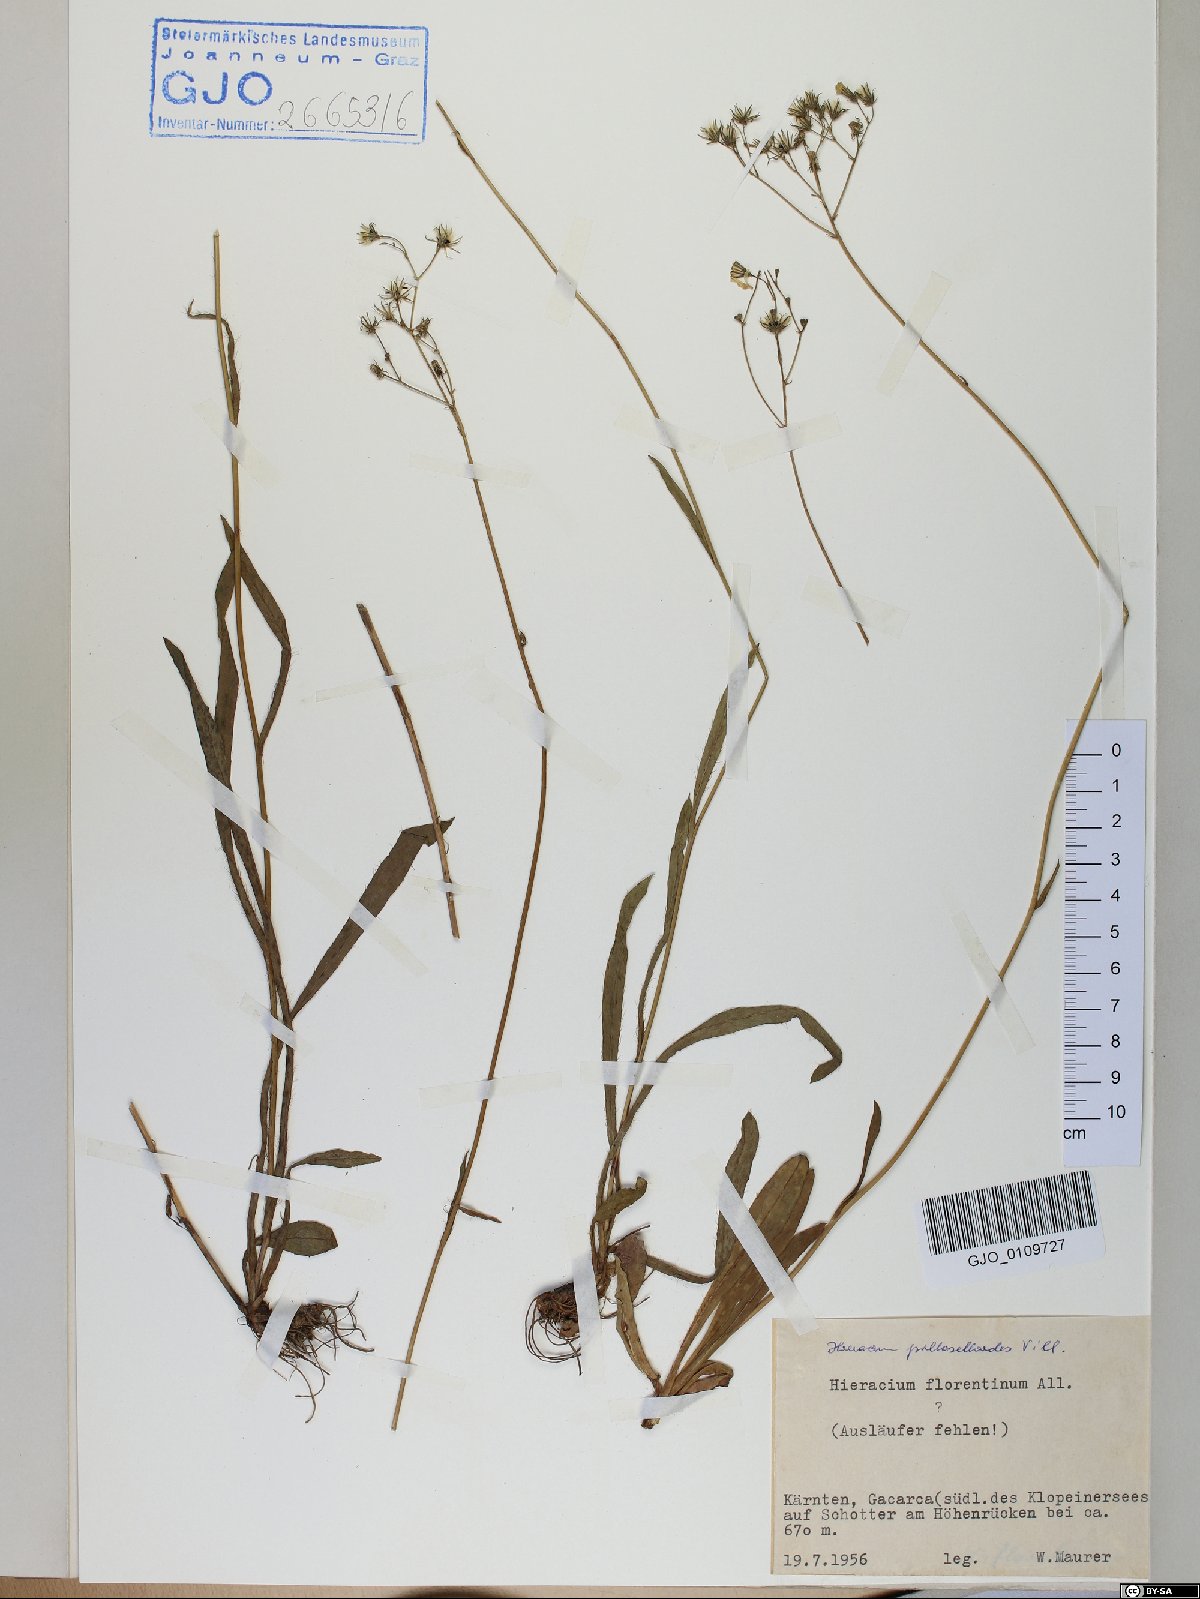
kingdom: Plantae
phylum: Tracheophyta
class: Magnoliopsida
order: Asterales
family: Asteraceae
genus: Pilosella
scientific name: Pilosella piloselloides
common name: Glaucous king-devil
